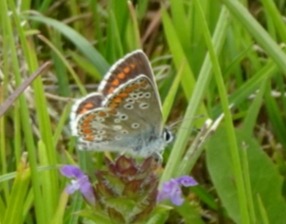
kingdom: Animalia
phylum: Arthropoda
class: Insecta
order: Lepidoptera
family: Lycaenidae
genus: Aricia
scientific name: Aricia agestis
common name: Rødplettet blåfugl
